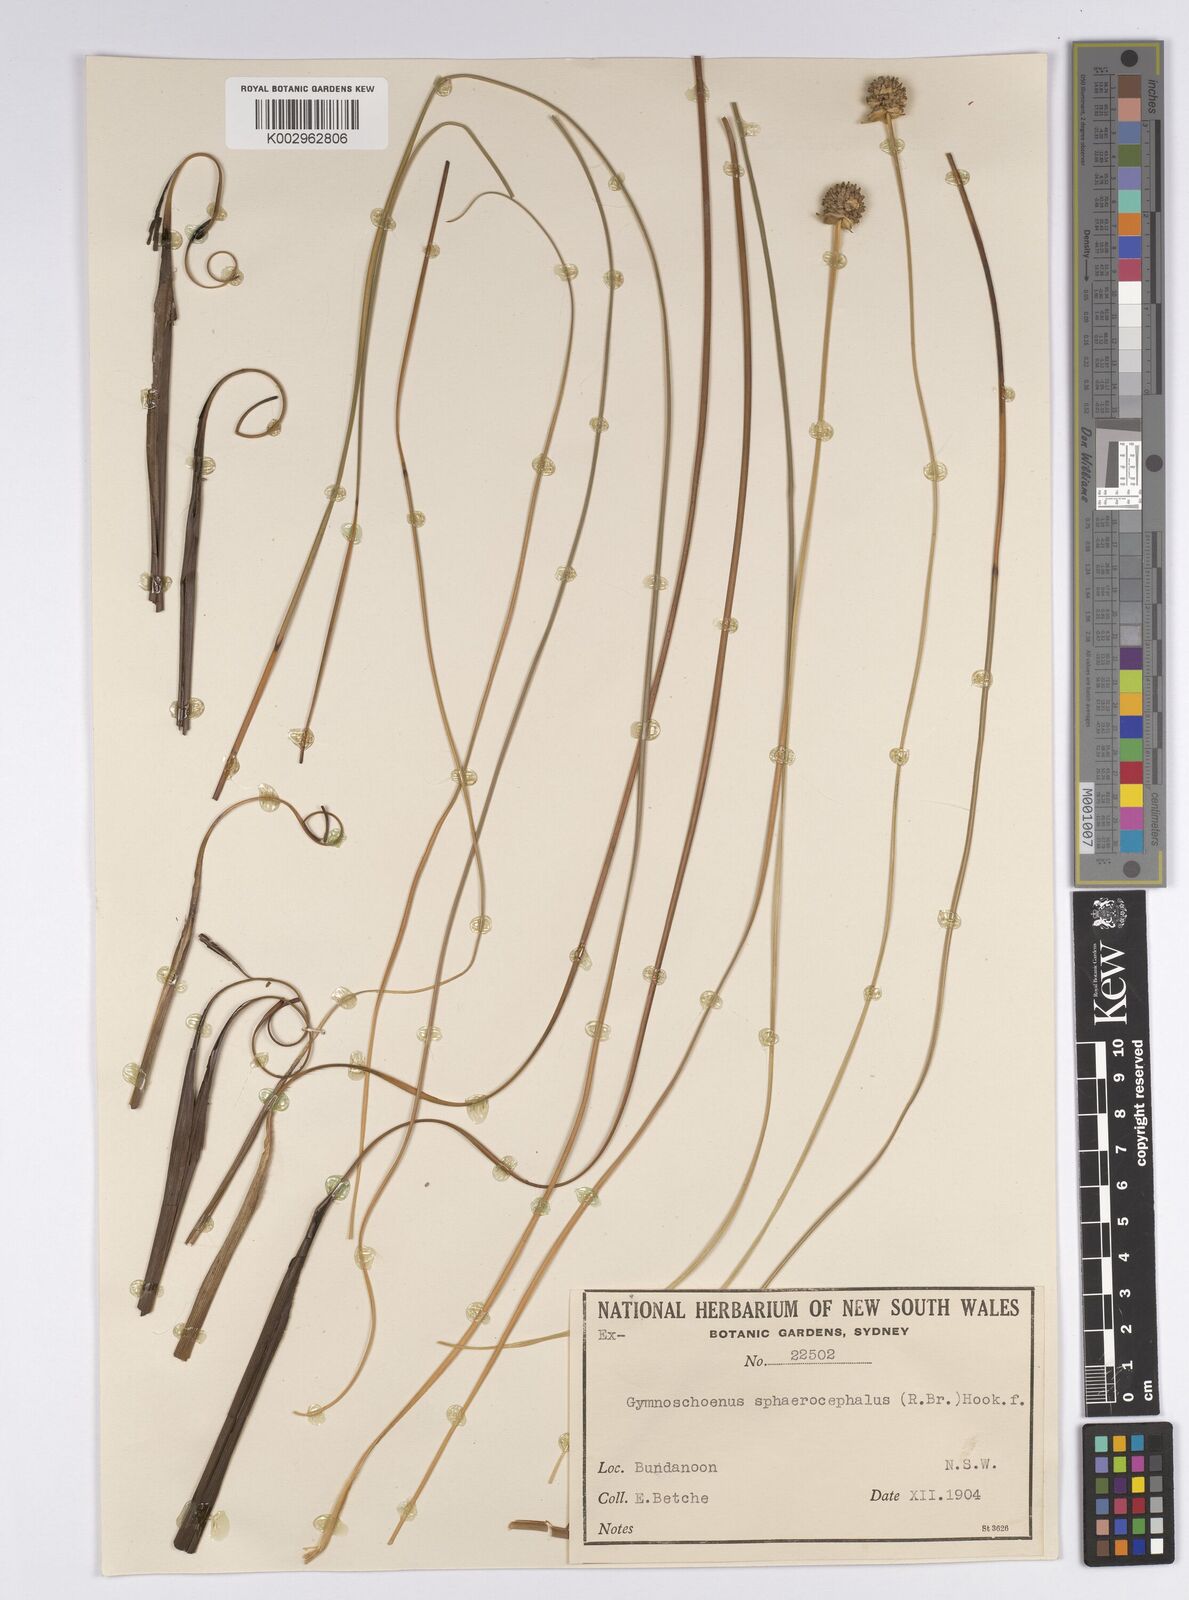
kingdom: Plantae
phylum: Tracheophyta
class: Liliopsida
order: Poales
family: Cyperaceae
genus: Gymnoschoenus
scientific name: Gymnoschoenus sphaerocephalus
